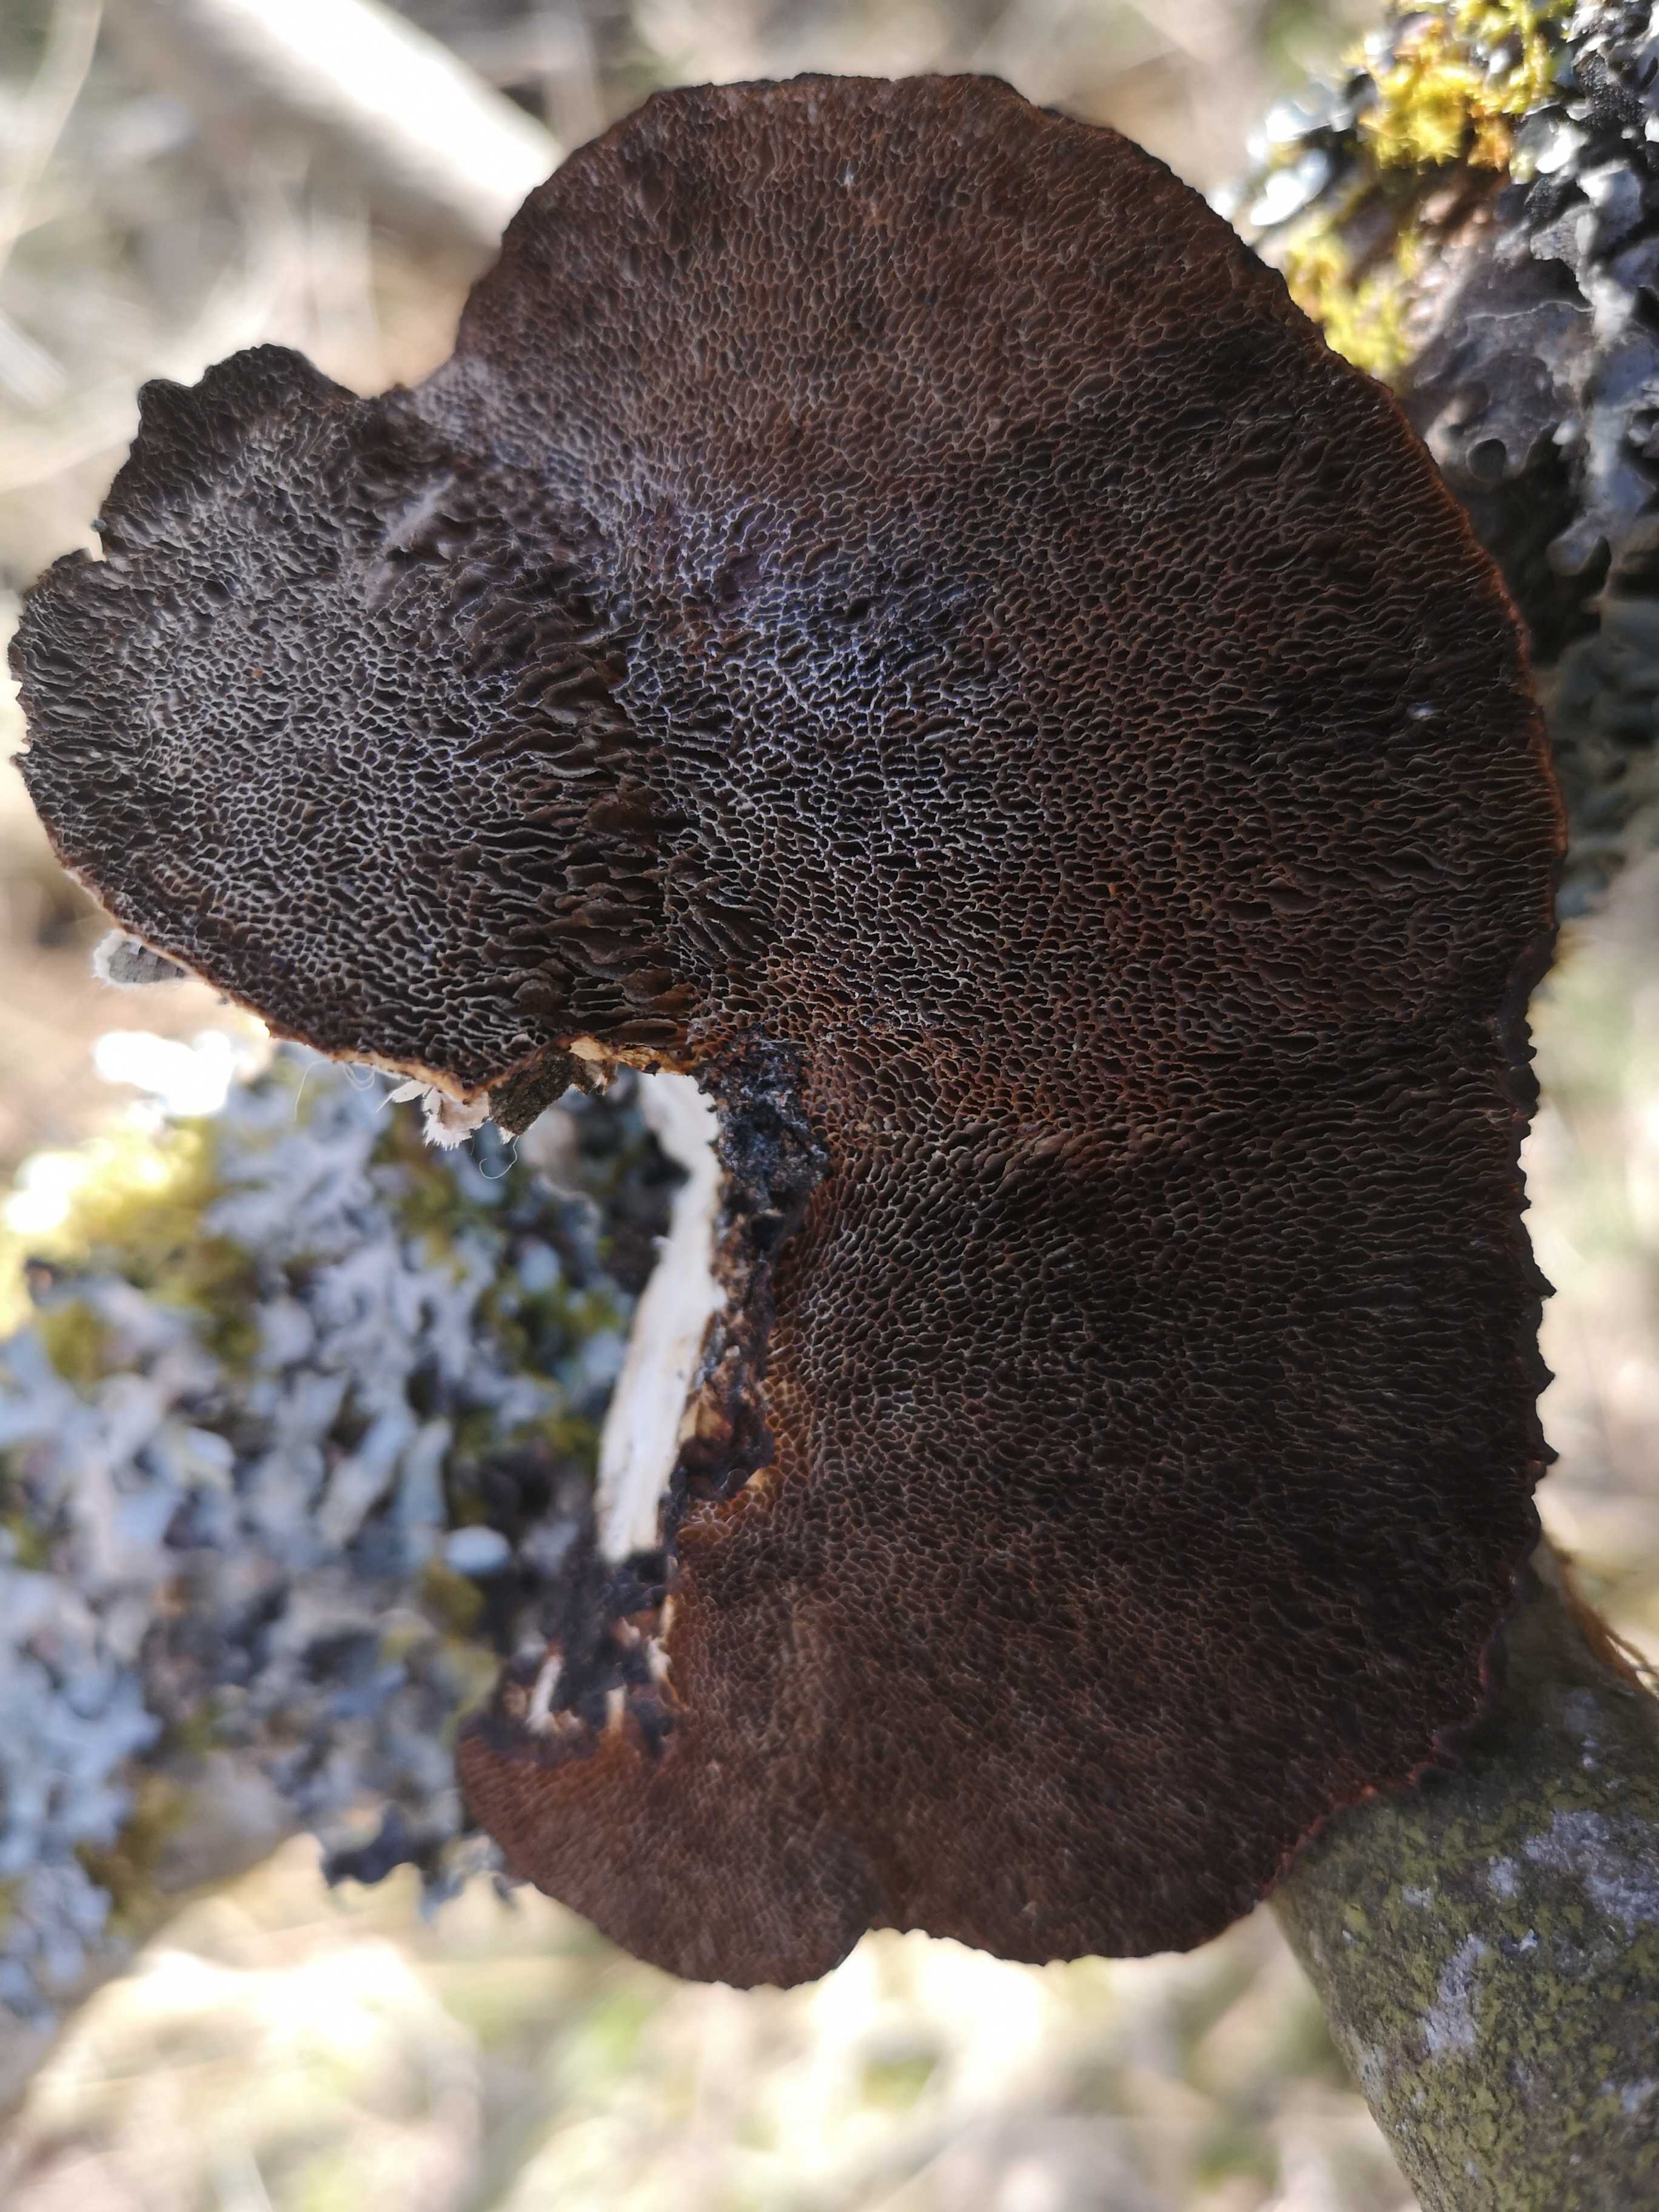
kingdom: Fungi
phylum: Basidiomycota
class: Agaricomycetes
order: Polyporales
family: Polyporaceae
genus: Daedaleopsis
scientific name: Daedaleopsis confragosa
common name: rødmende læderporesvamp
